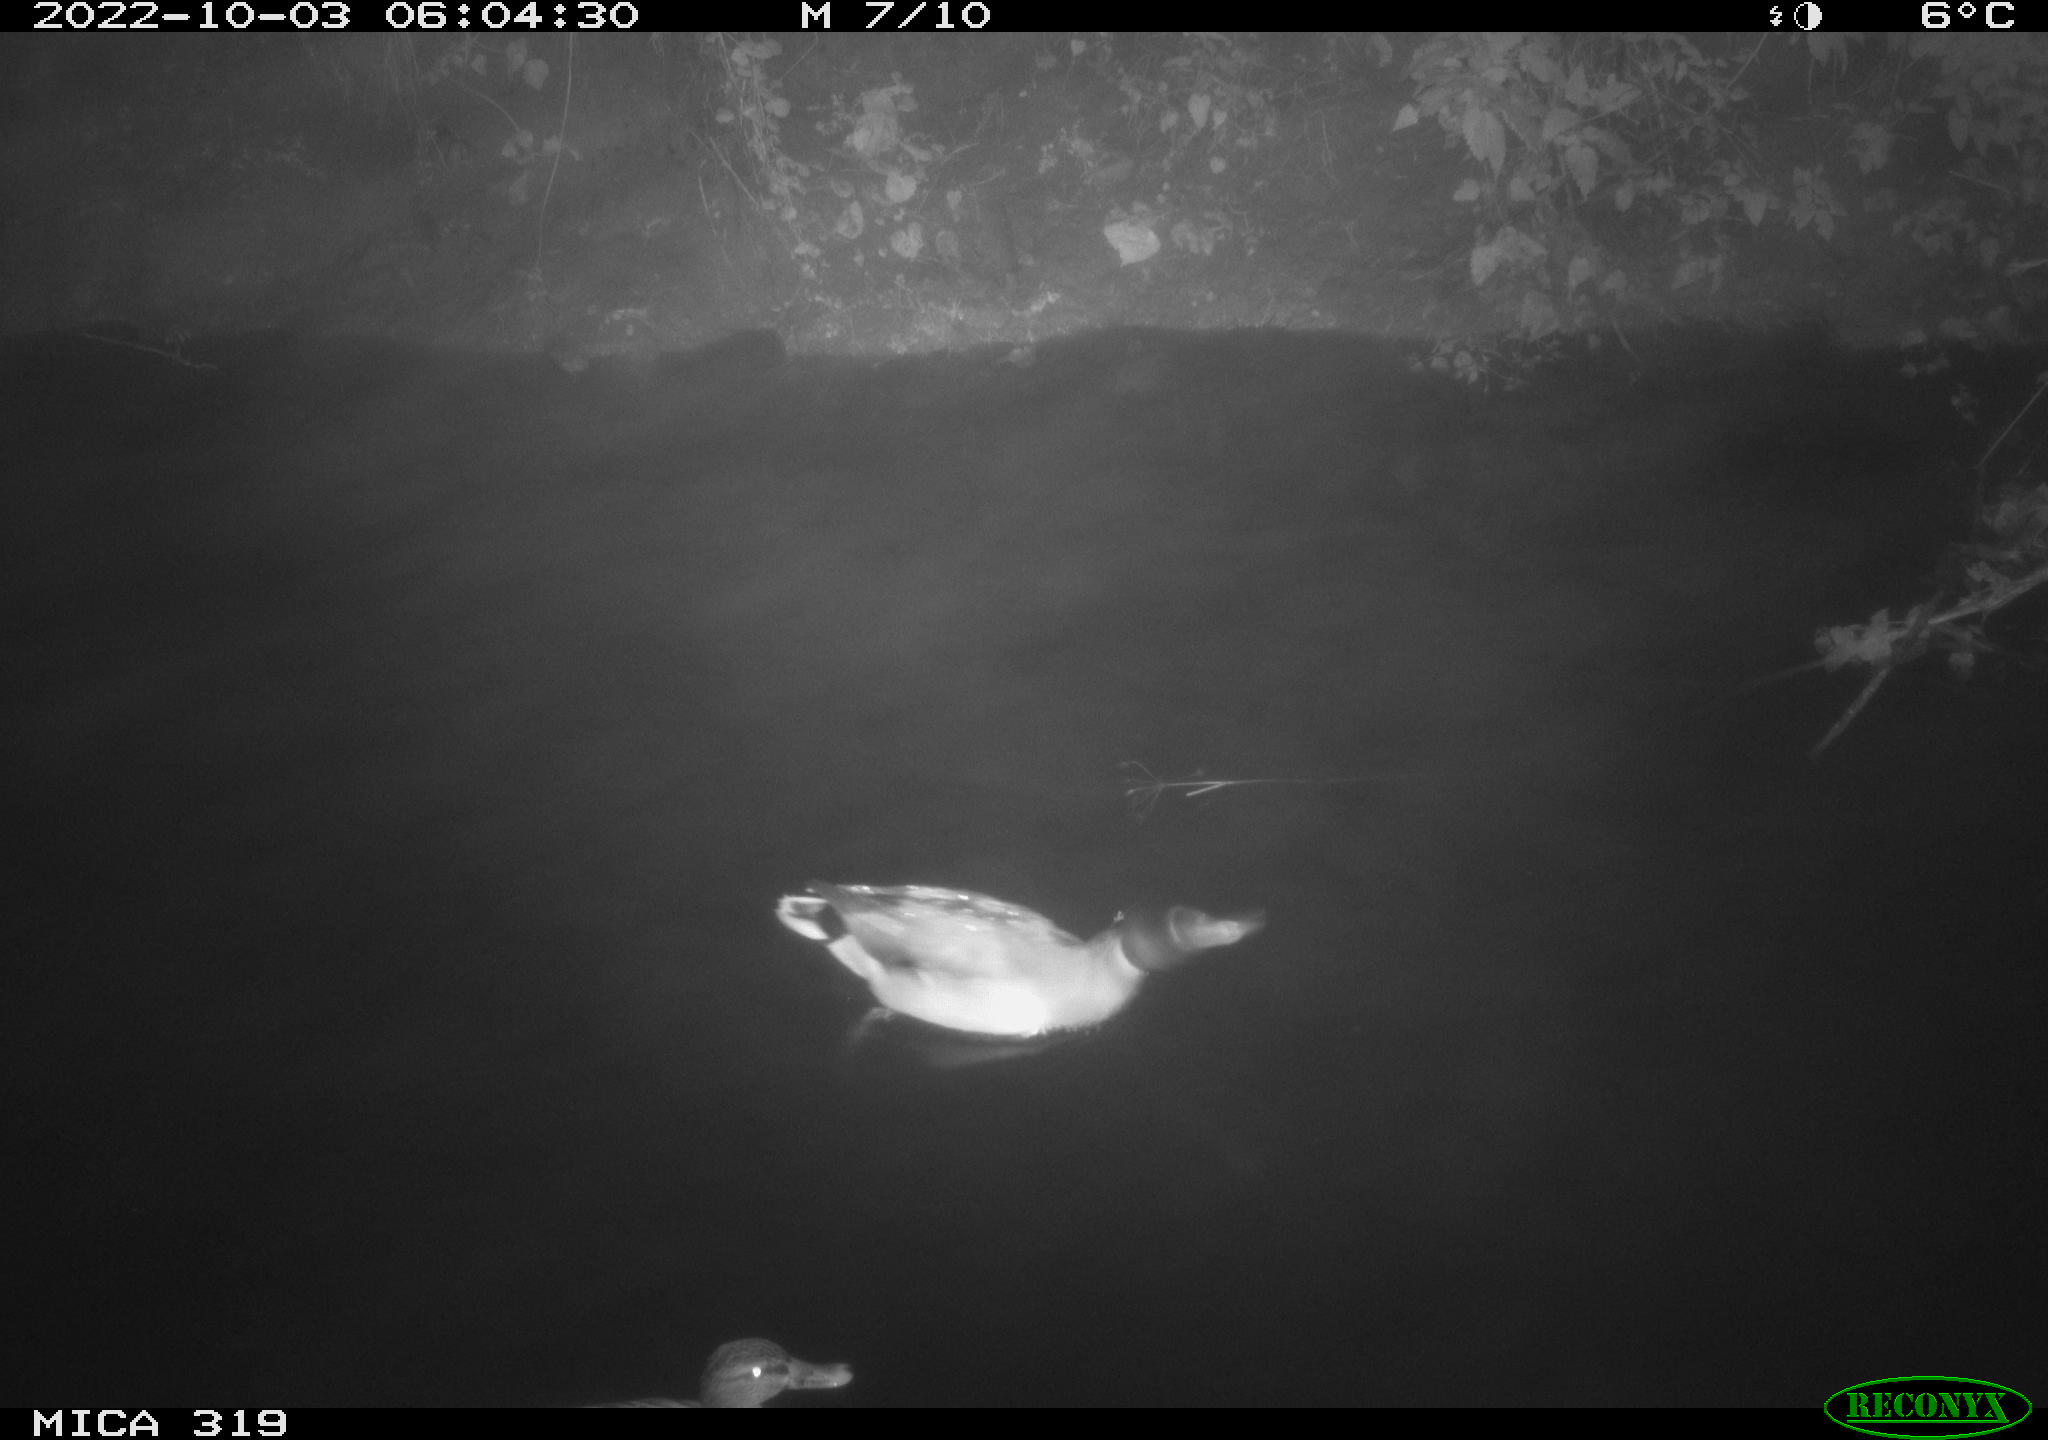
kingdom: Animalia
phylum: Chordata
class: Aves
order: Anseriformes
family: Anatidae
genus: Anas
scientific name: Anas
